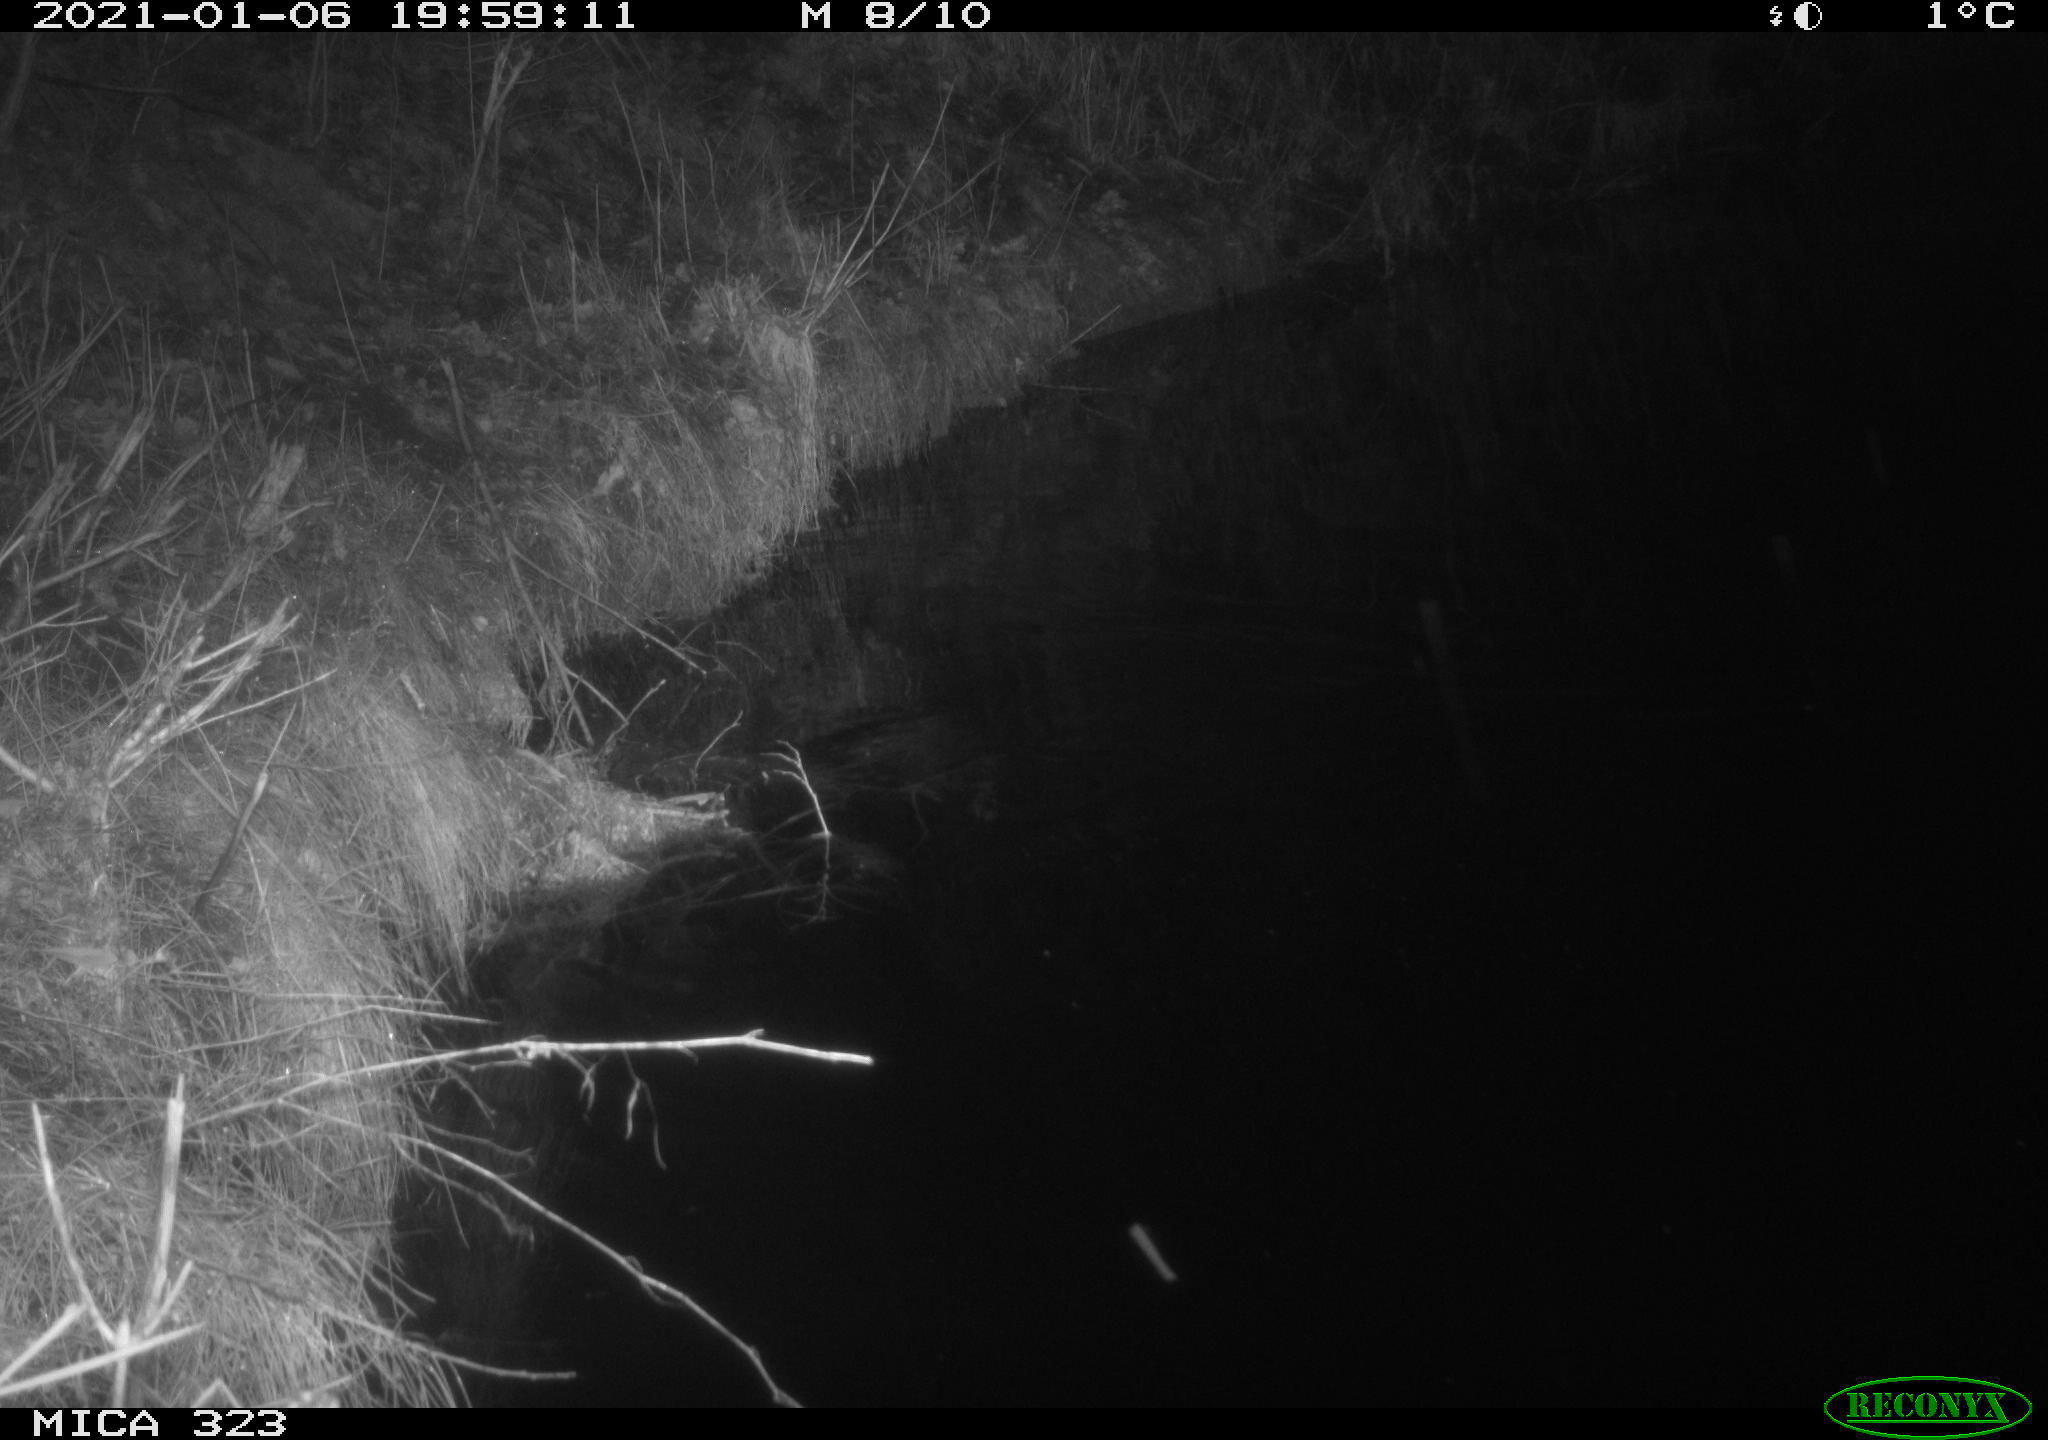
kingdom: Animalia
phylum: Chordata
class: Mammalia
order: Carnivora
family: Mustelidae
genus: Mustela
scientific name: Mustela putorius
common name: European polecat
